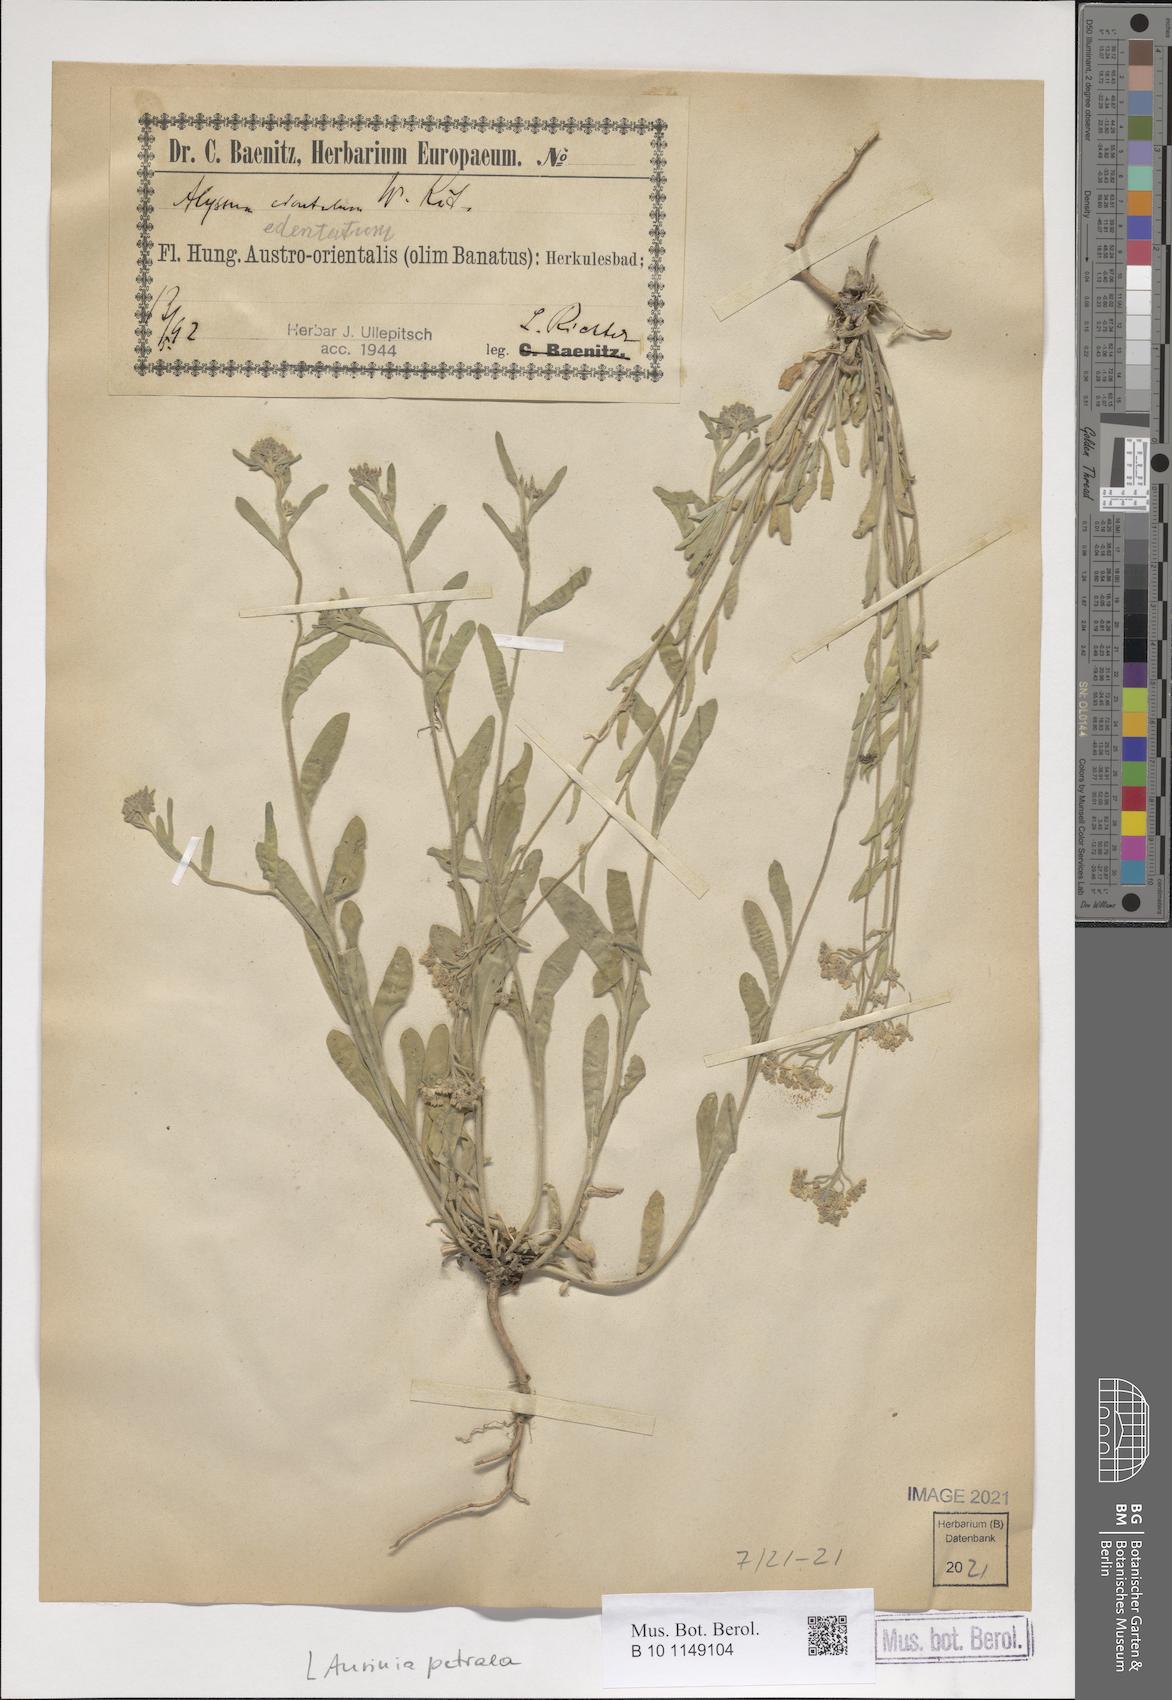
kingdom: Plantae
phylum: Tracheophyta
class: Magnoliopsida
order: Brassicales
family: Brassicaceae
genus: Aurinia
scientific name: Aurinia petraea
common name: Goldentuft
